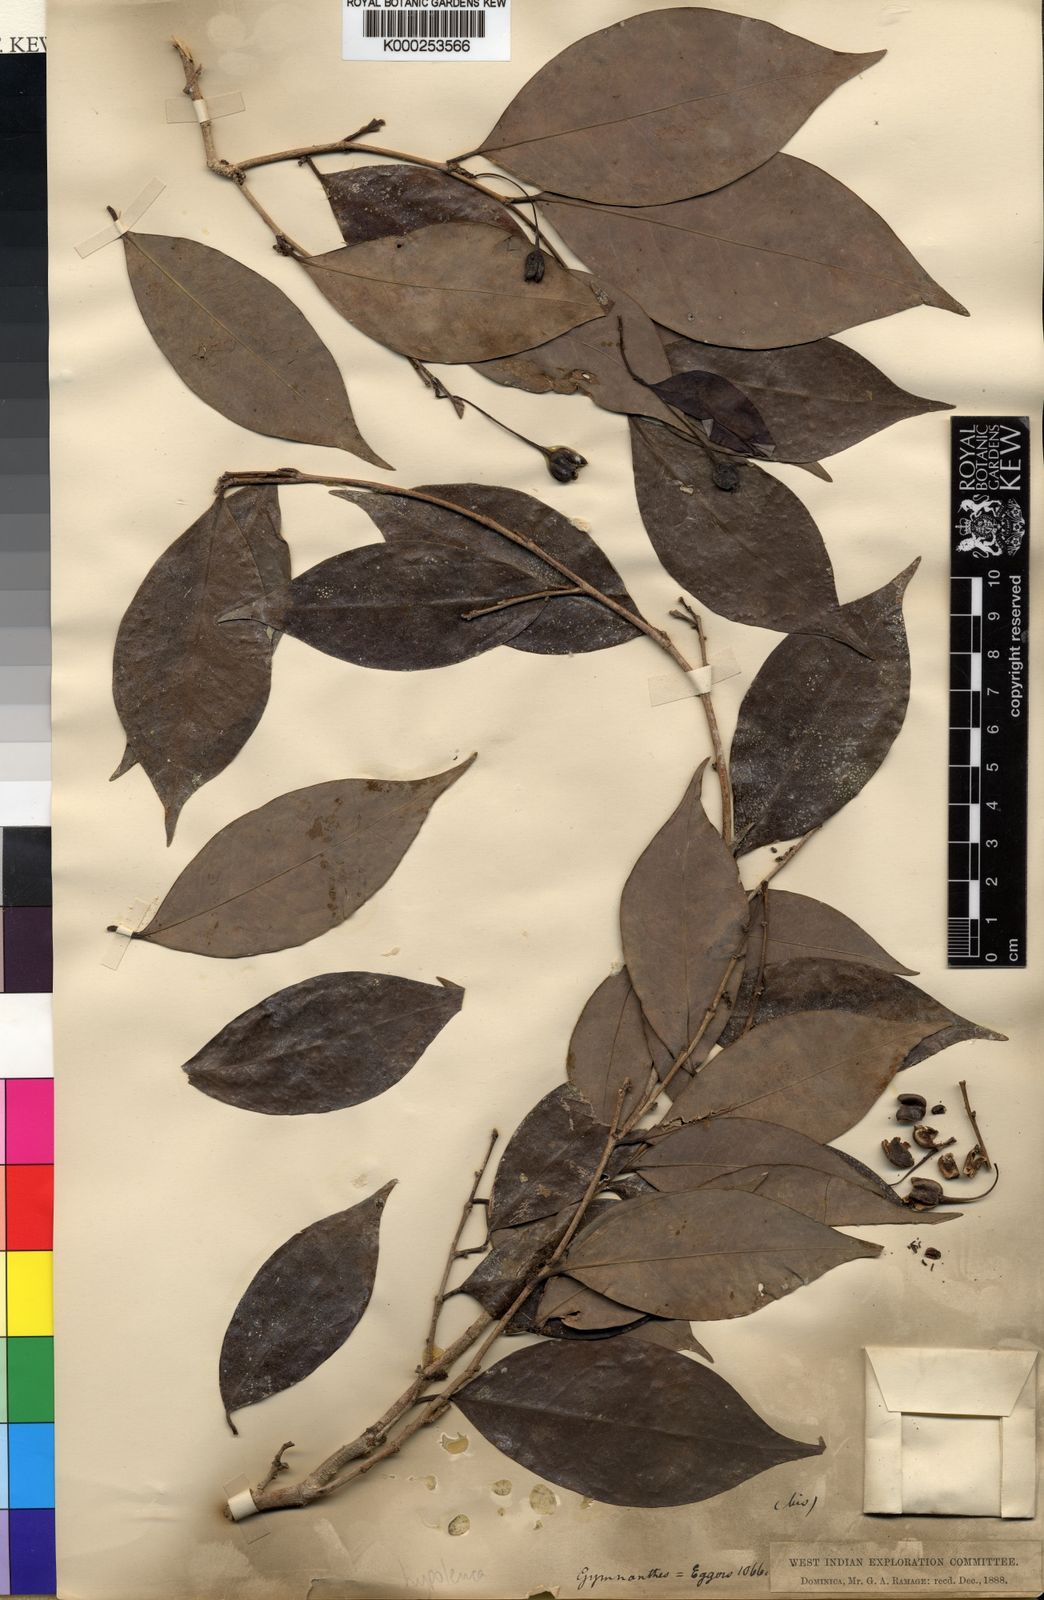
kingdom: Plantae
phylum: Tracheophyta
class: Magnoliopsida
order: Malpighiales
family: Euphorbiaceae
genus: Gymnanthes
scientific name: Gymnanthes hypoleuca
